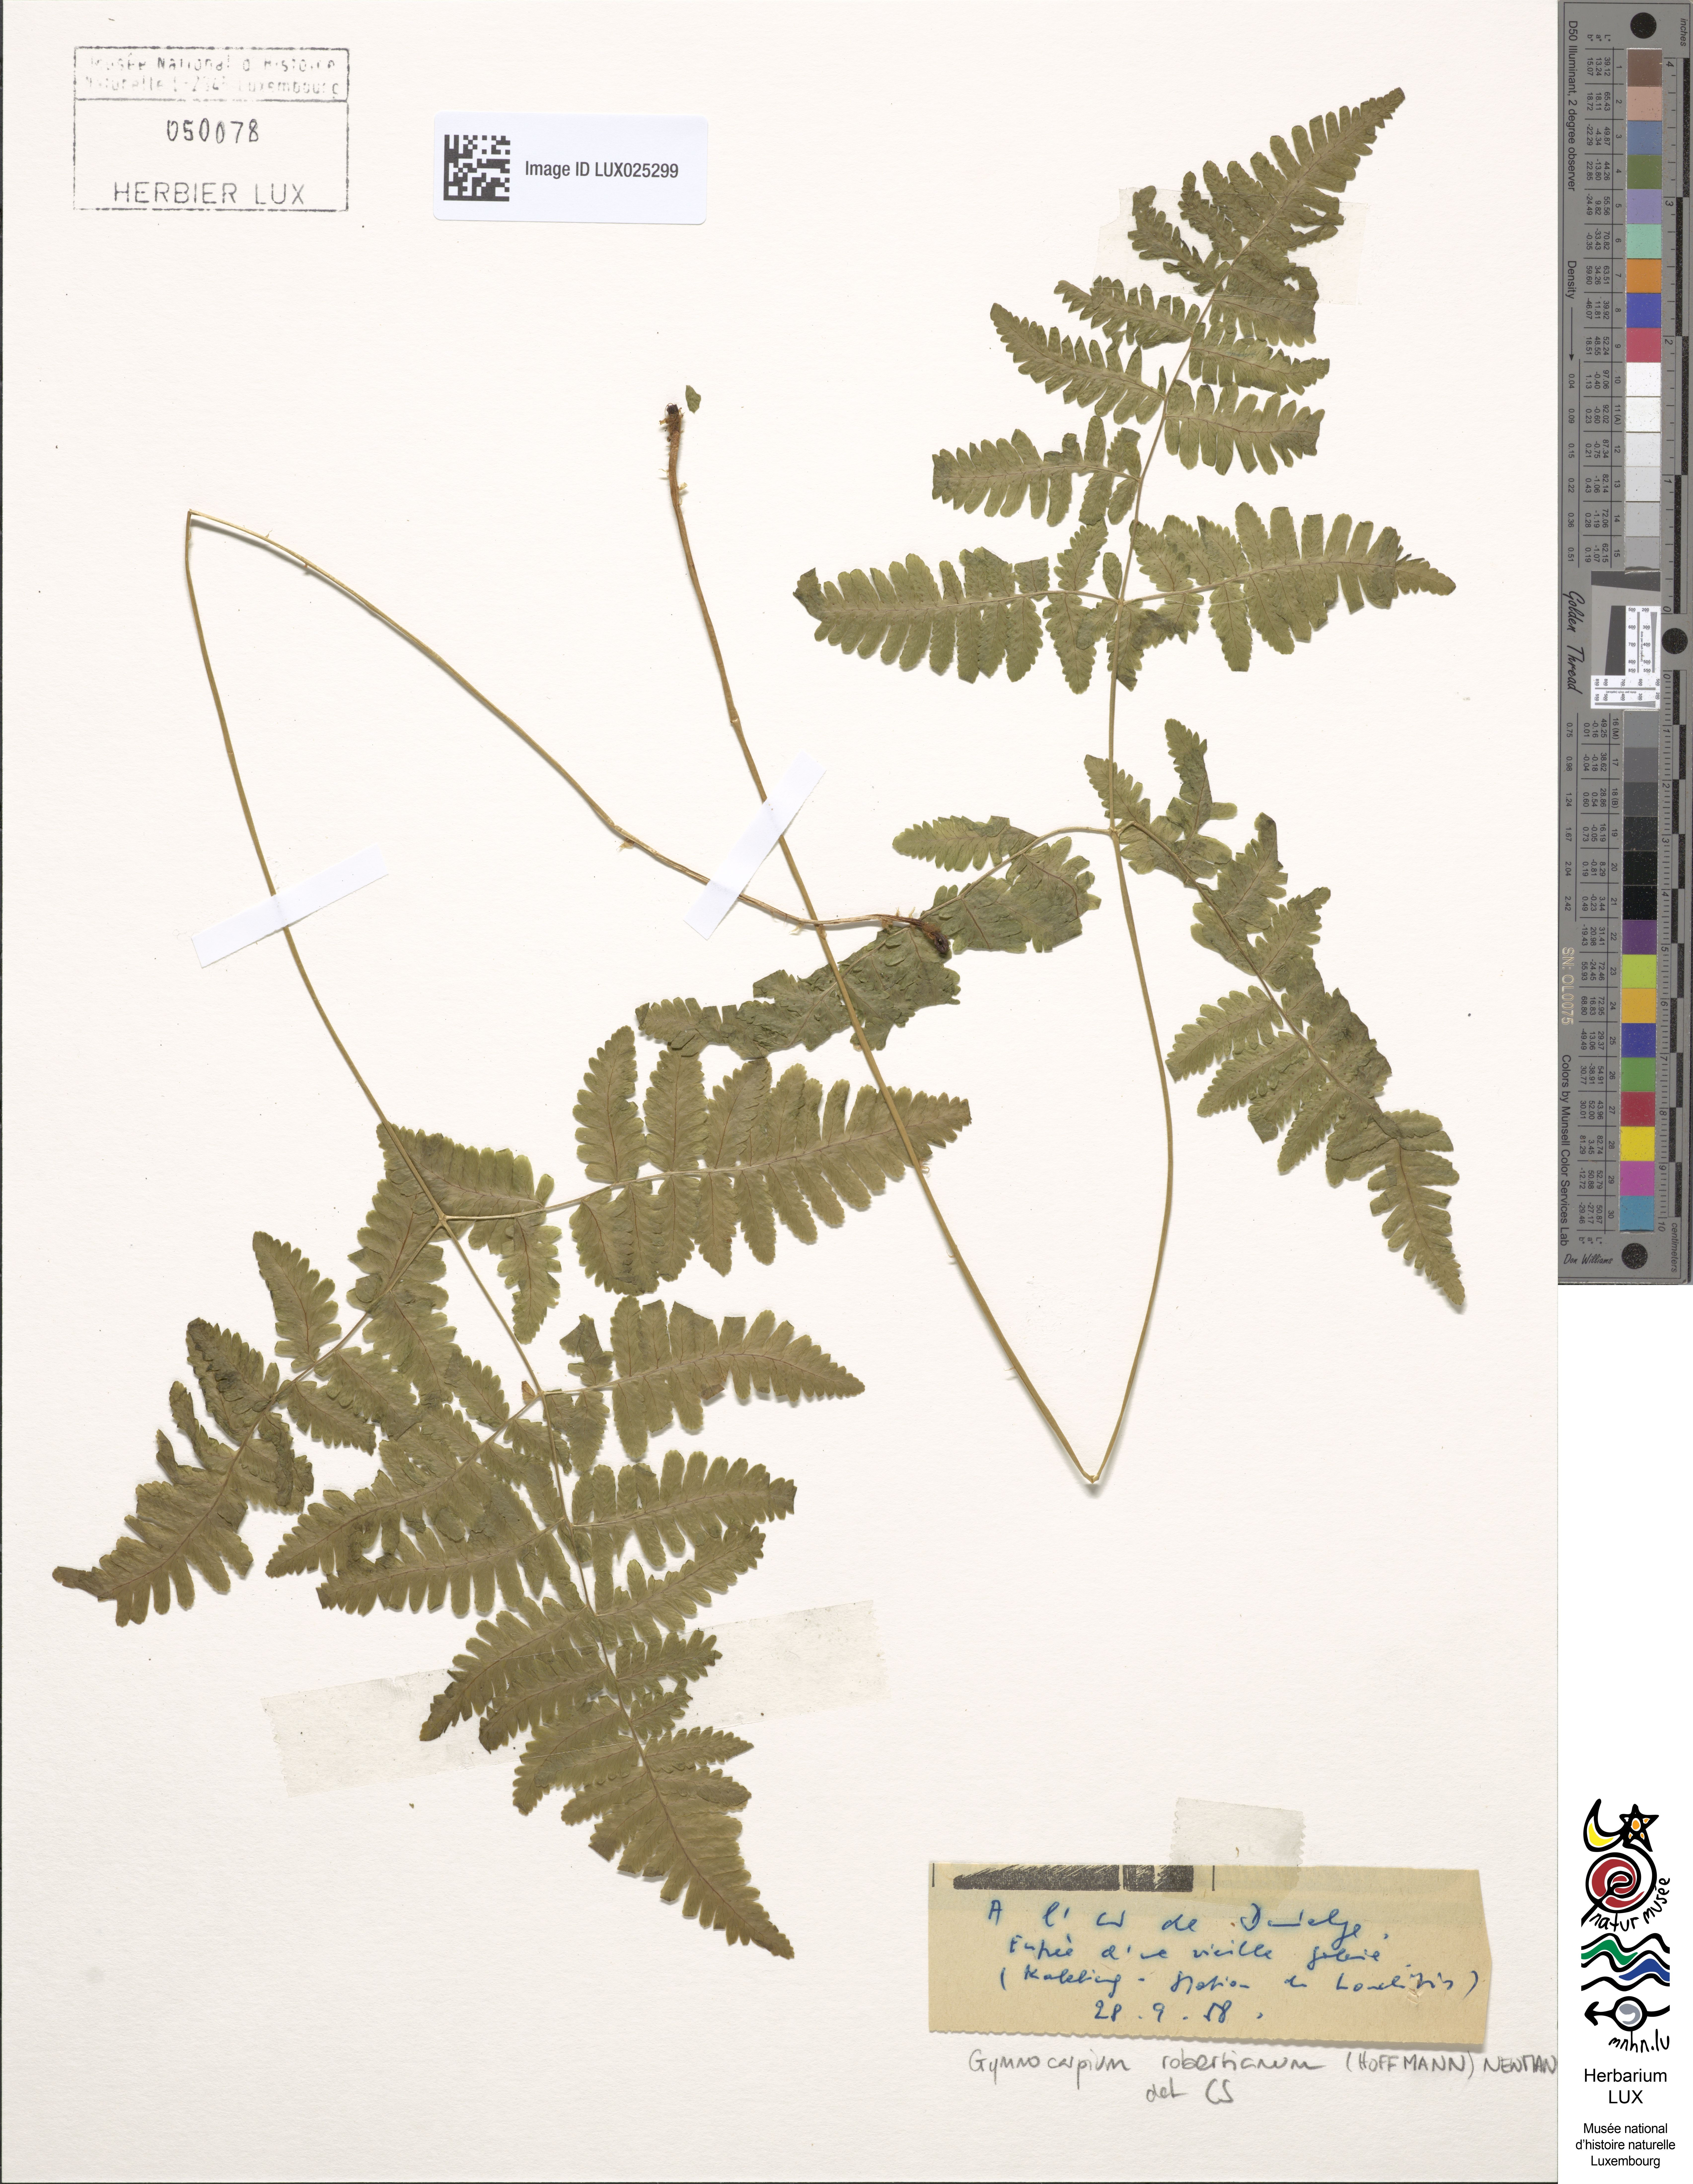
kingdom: Plantae
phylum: Tracheophyta
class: Polypodiopsida
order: Polypodiales
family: Cystopteridaceae
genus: Gymnocarpium
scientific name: Gymnocarpium robertianum
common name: Limestone fern
